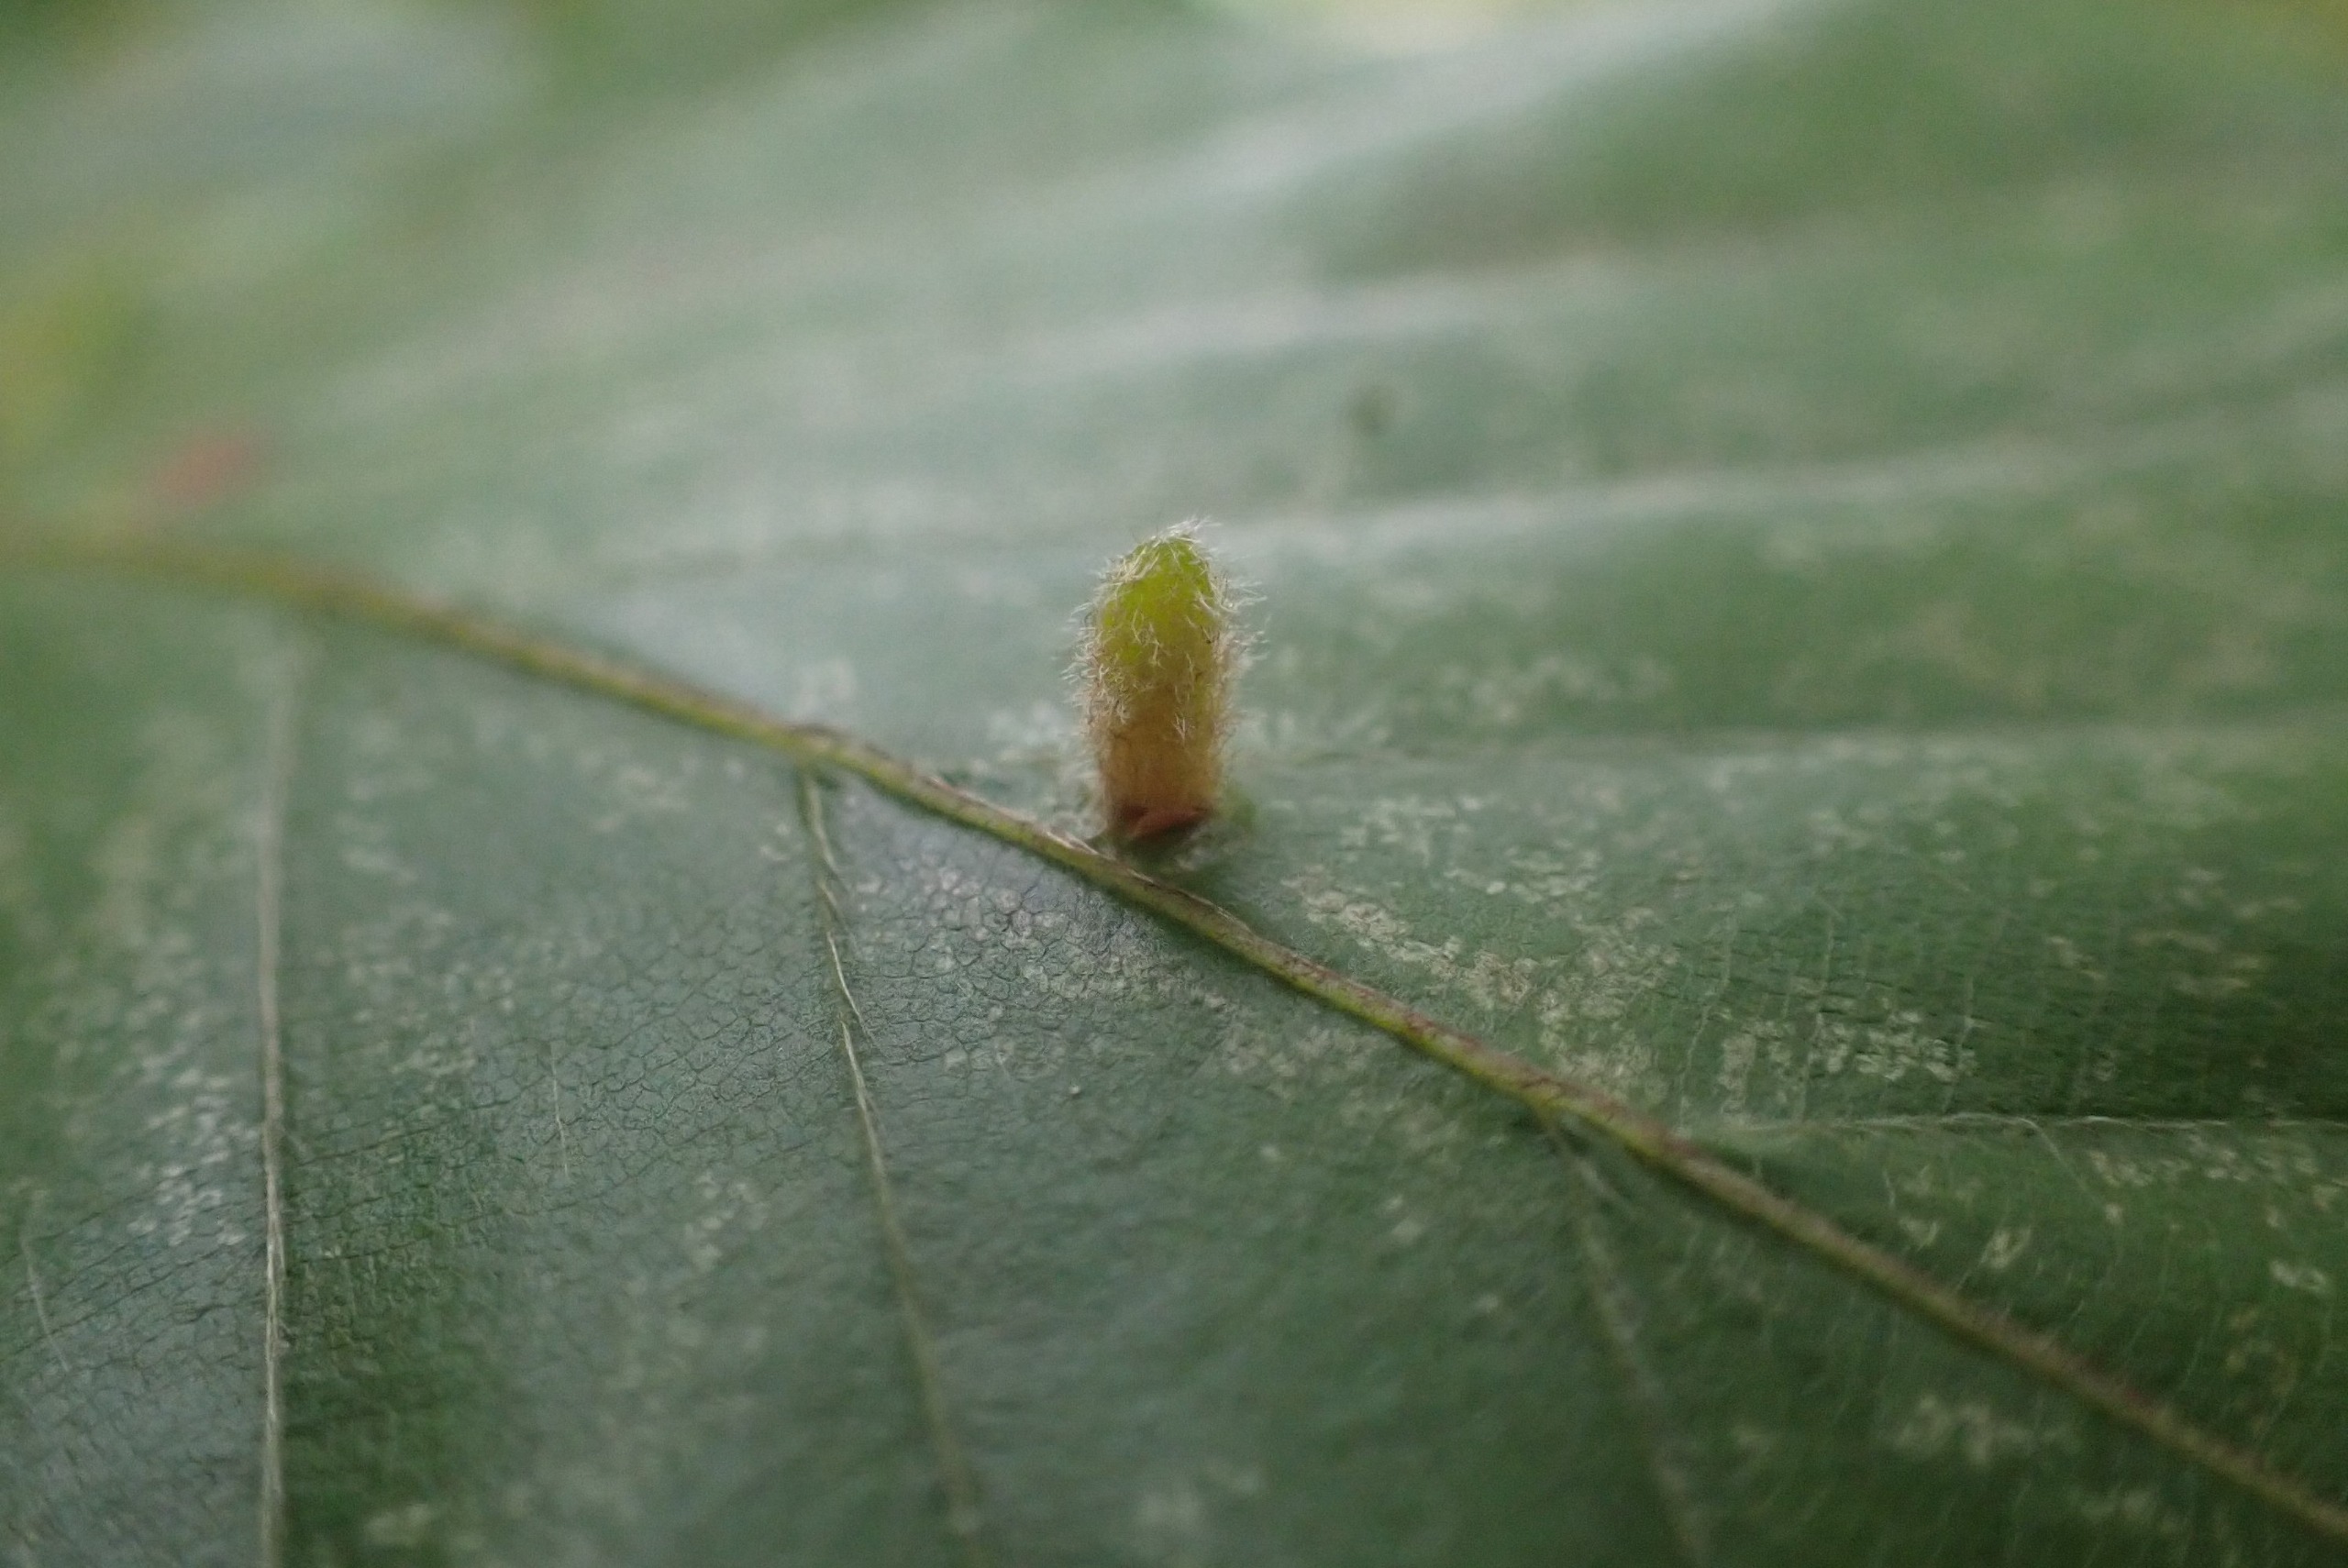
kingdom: Animalia
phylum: Arthropoda
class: Insecta
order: Diptera
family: Cecidomyiidae
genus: Hartigiola
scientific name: Hartigiola annulipes
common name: Skovtroldegalmyg
